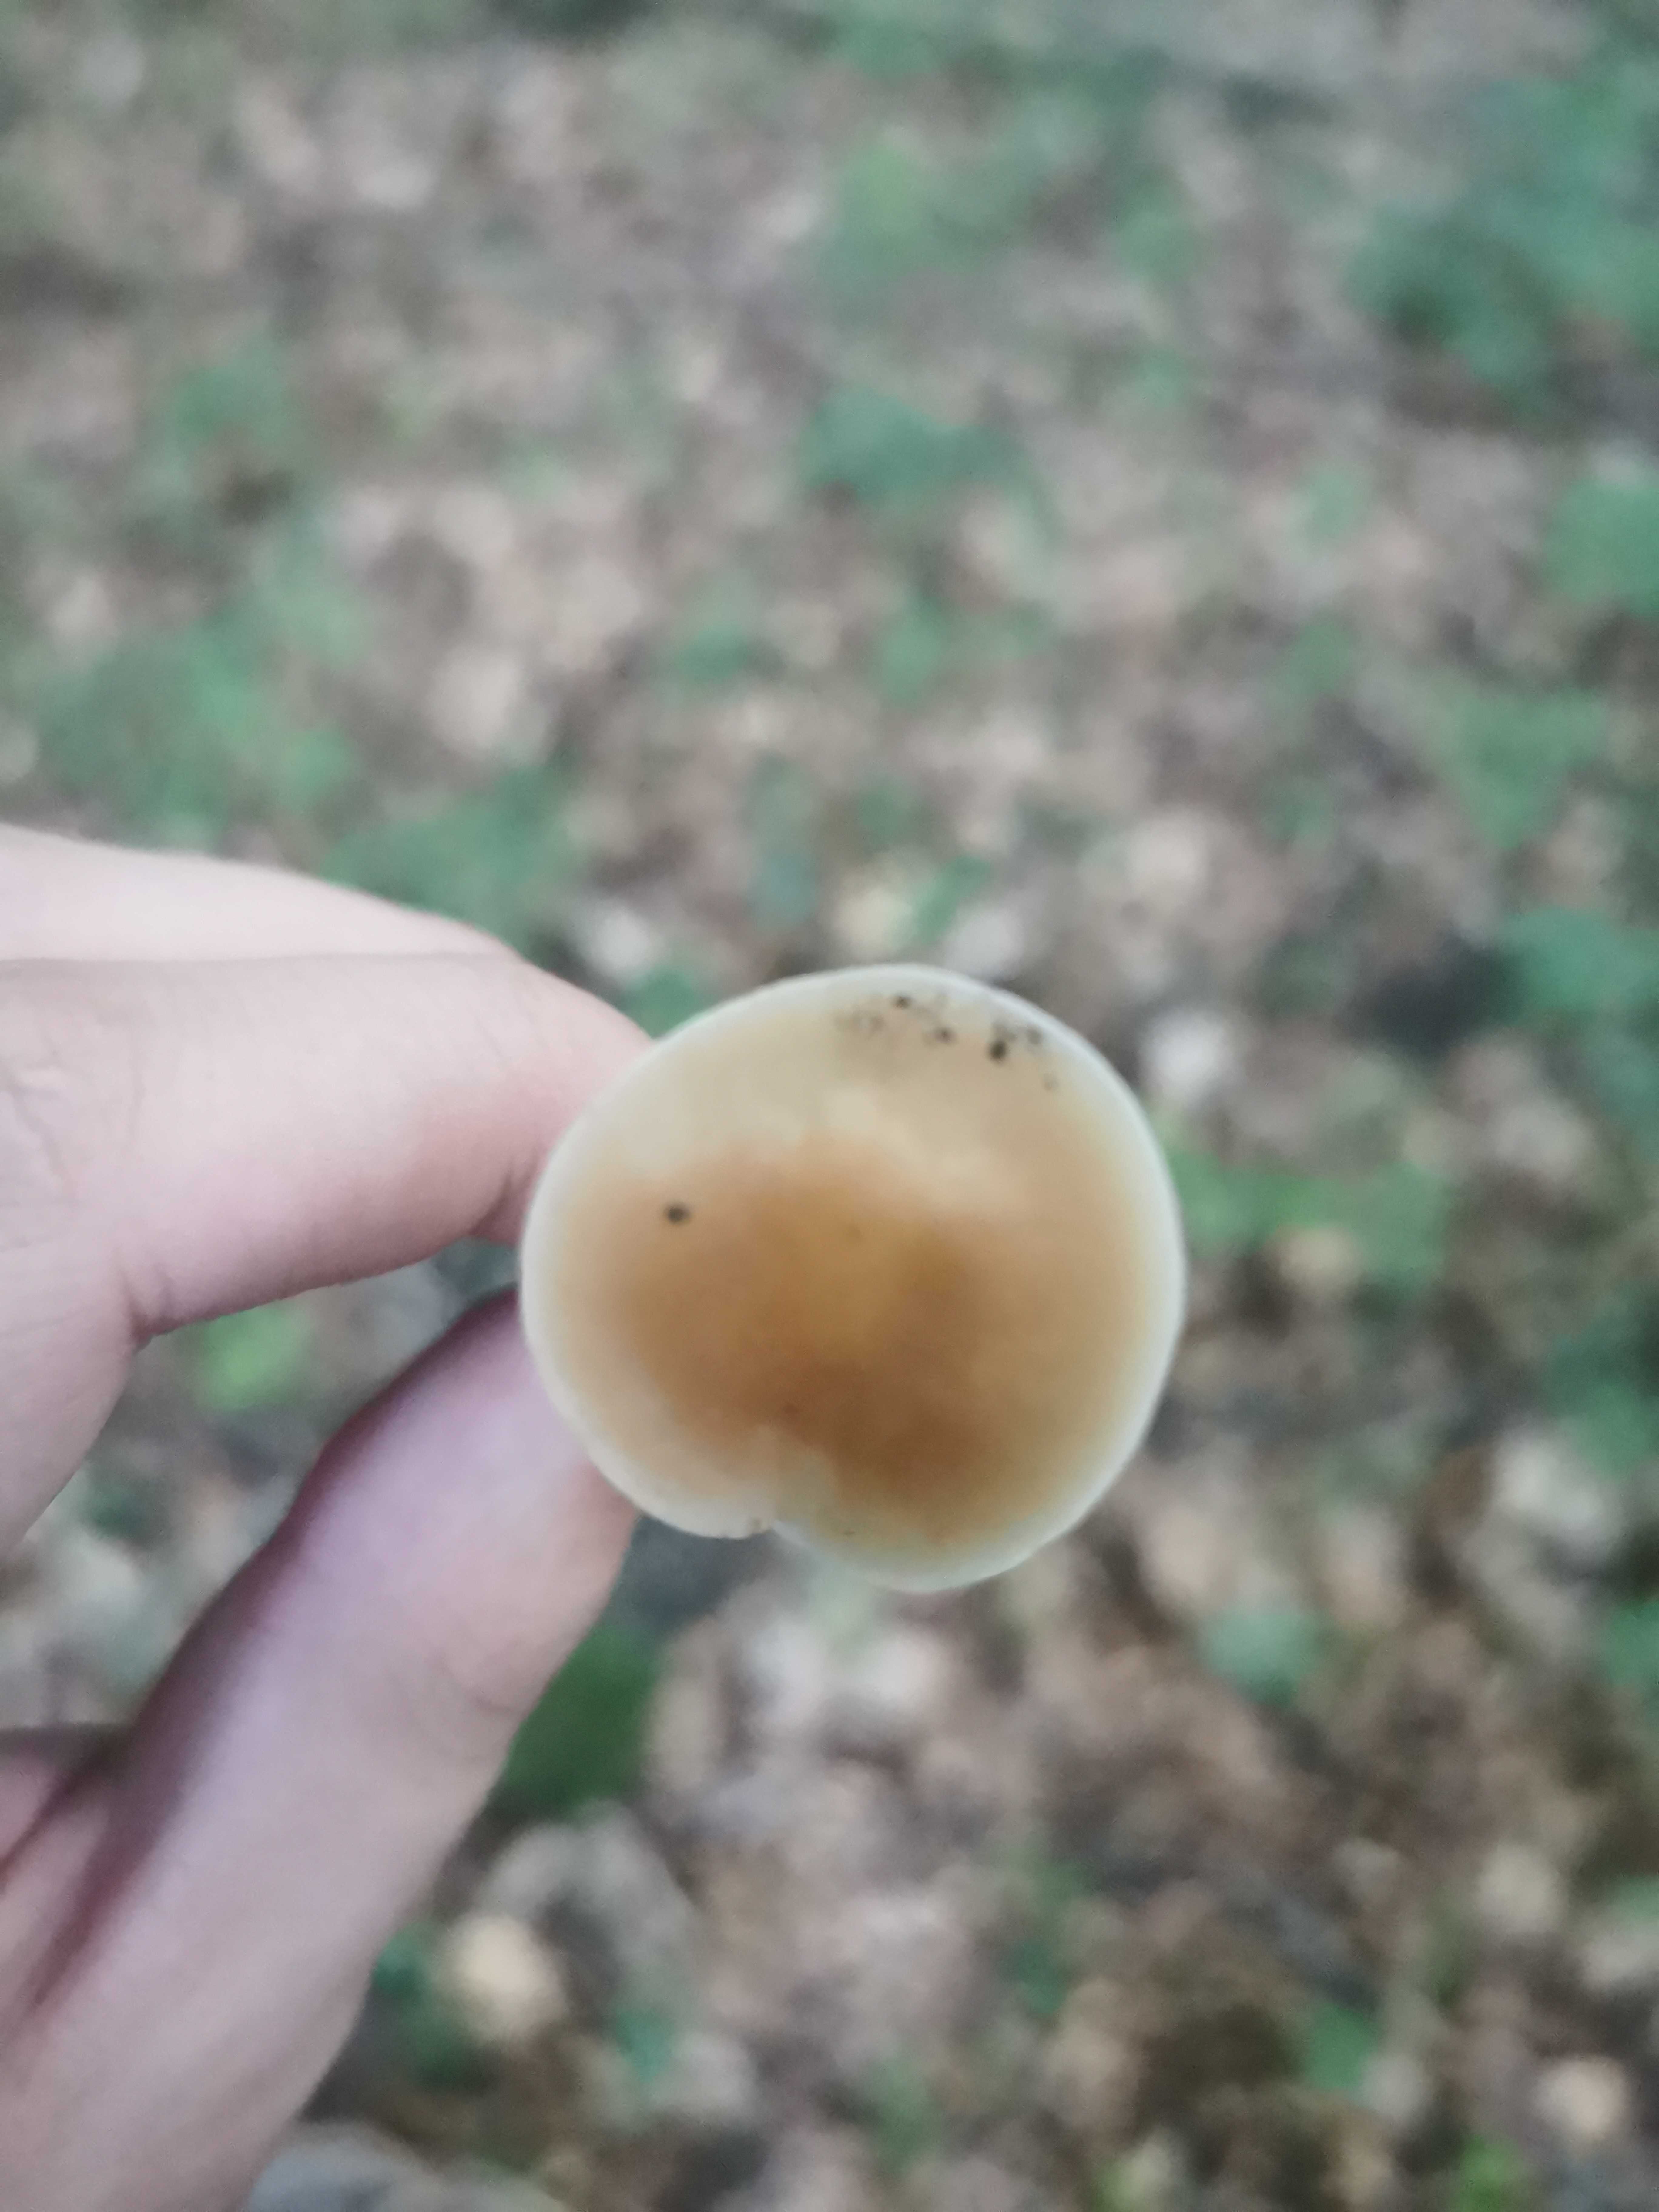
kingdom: Fungi
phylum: Basidiomycota
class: Agaricomycetes
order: Agaricales
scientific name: Agaricales
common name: champignonordenen
